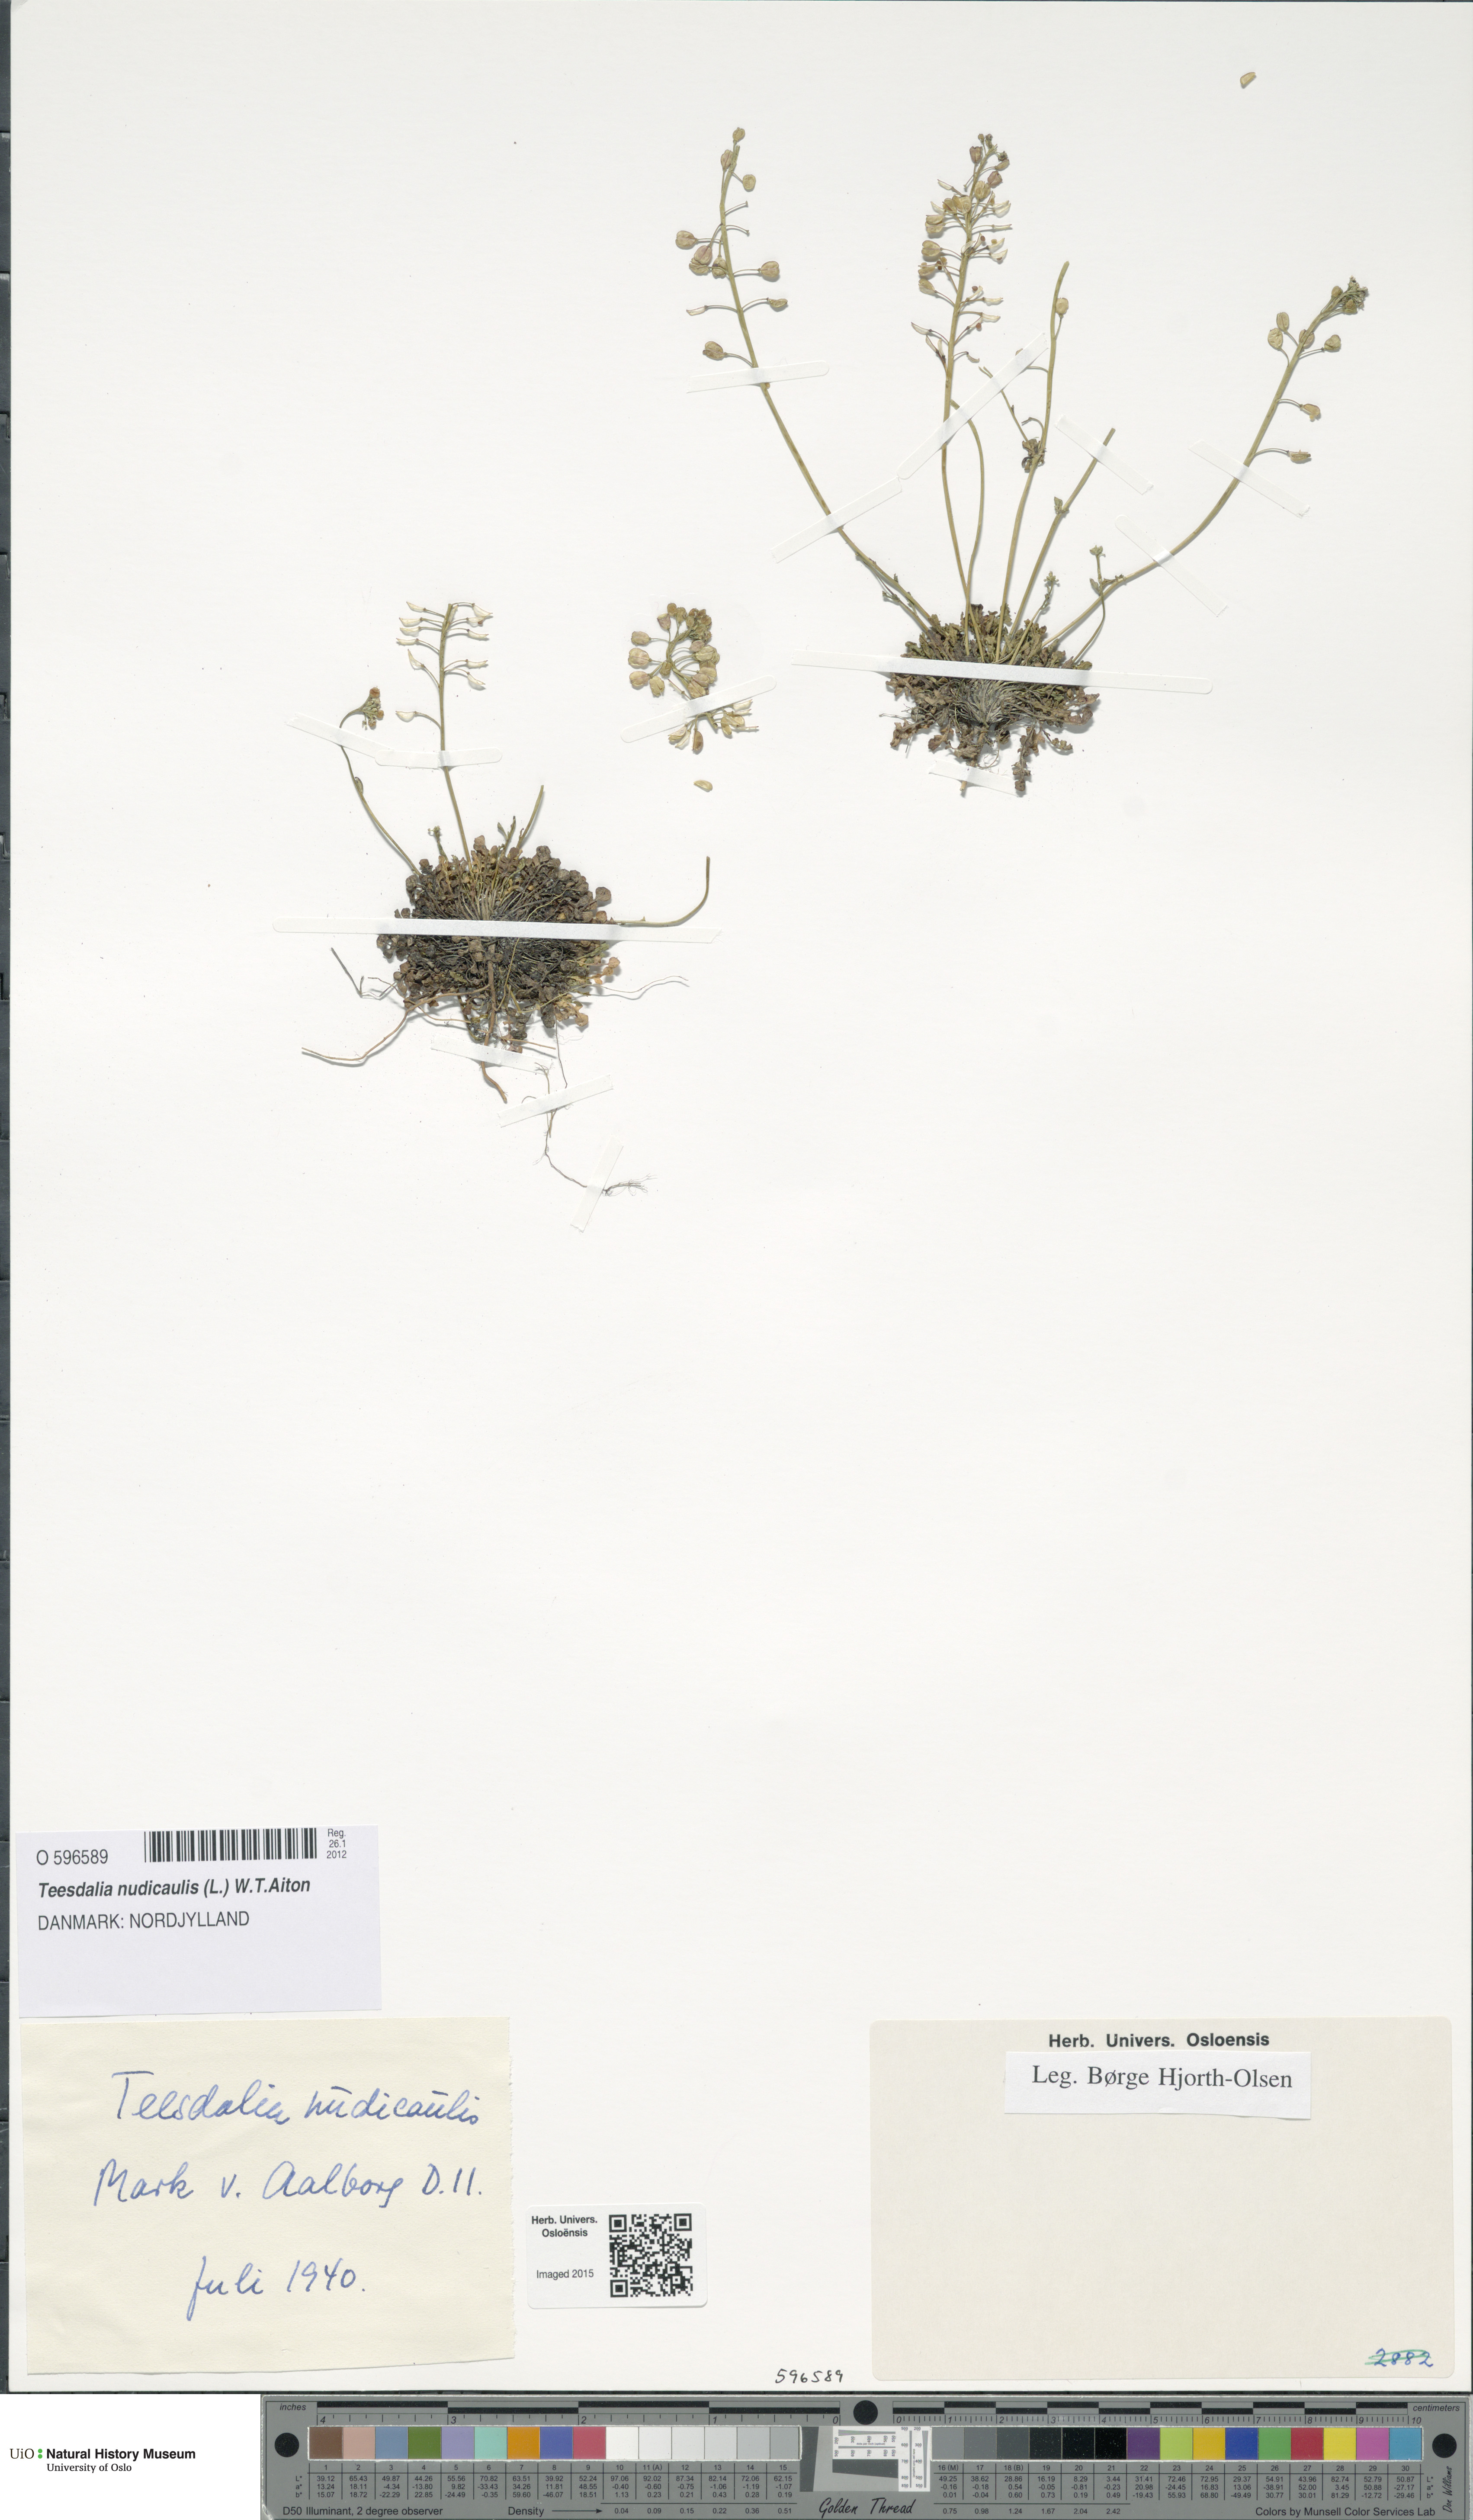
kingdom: Plantae
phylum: Tracheophyta
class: Magnoliopsida
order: Brassicales
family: Brassicaceae
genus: Teesdalia
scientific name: Teesdalia nudicaulis
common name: Shepherd's cress
